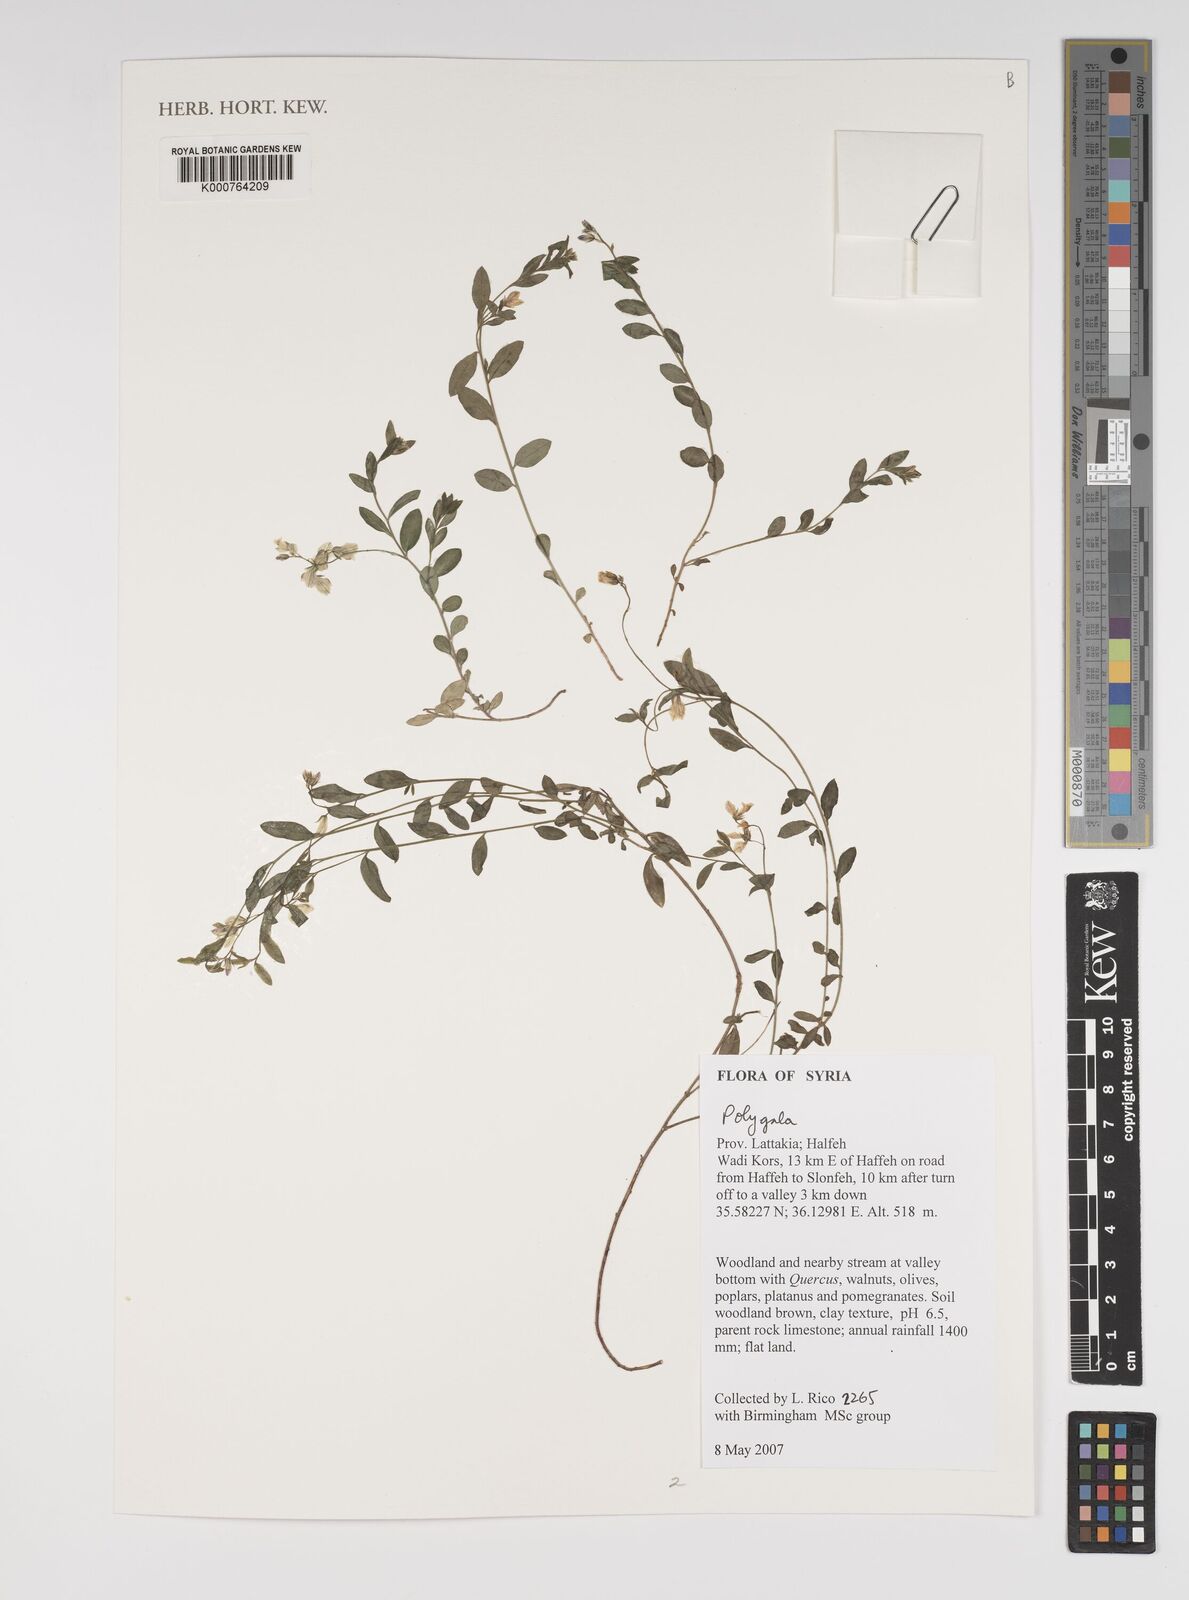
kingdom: Plantae
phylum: Tracheophyta
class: Magnoliopsida
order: Fabales
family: Polygalaceae
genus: Polygala
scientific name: Polygala
